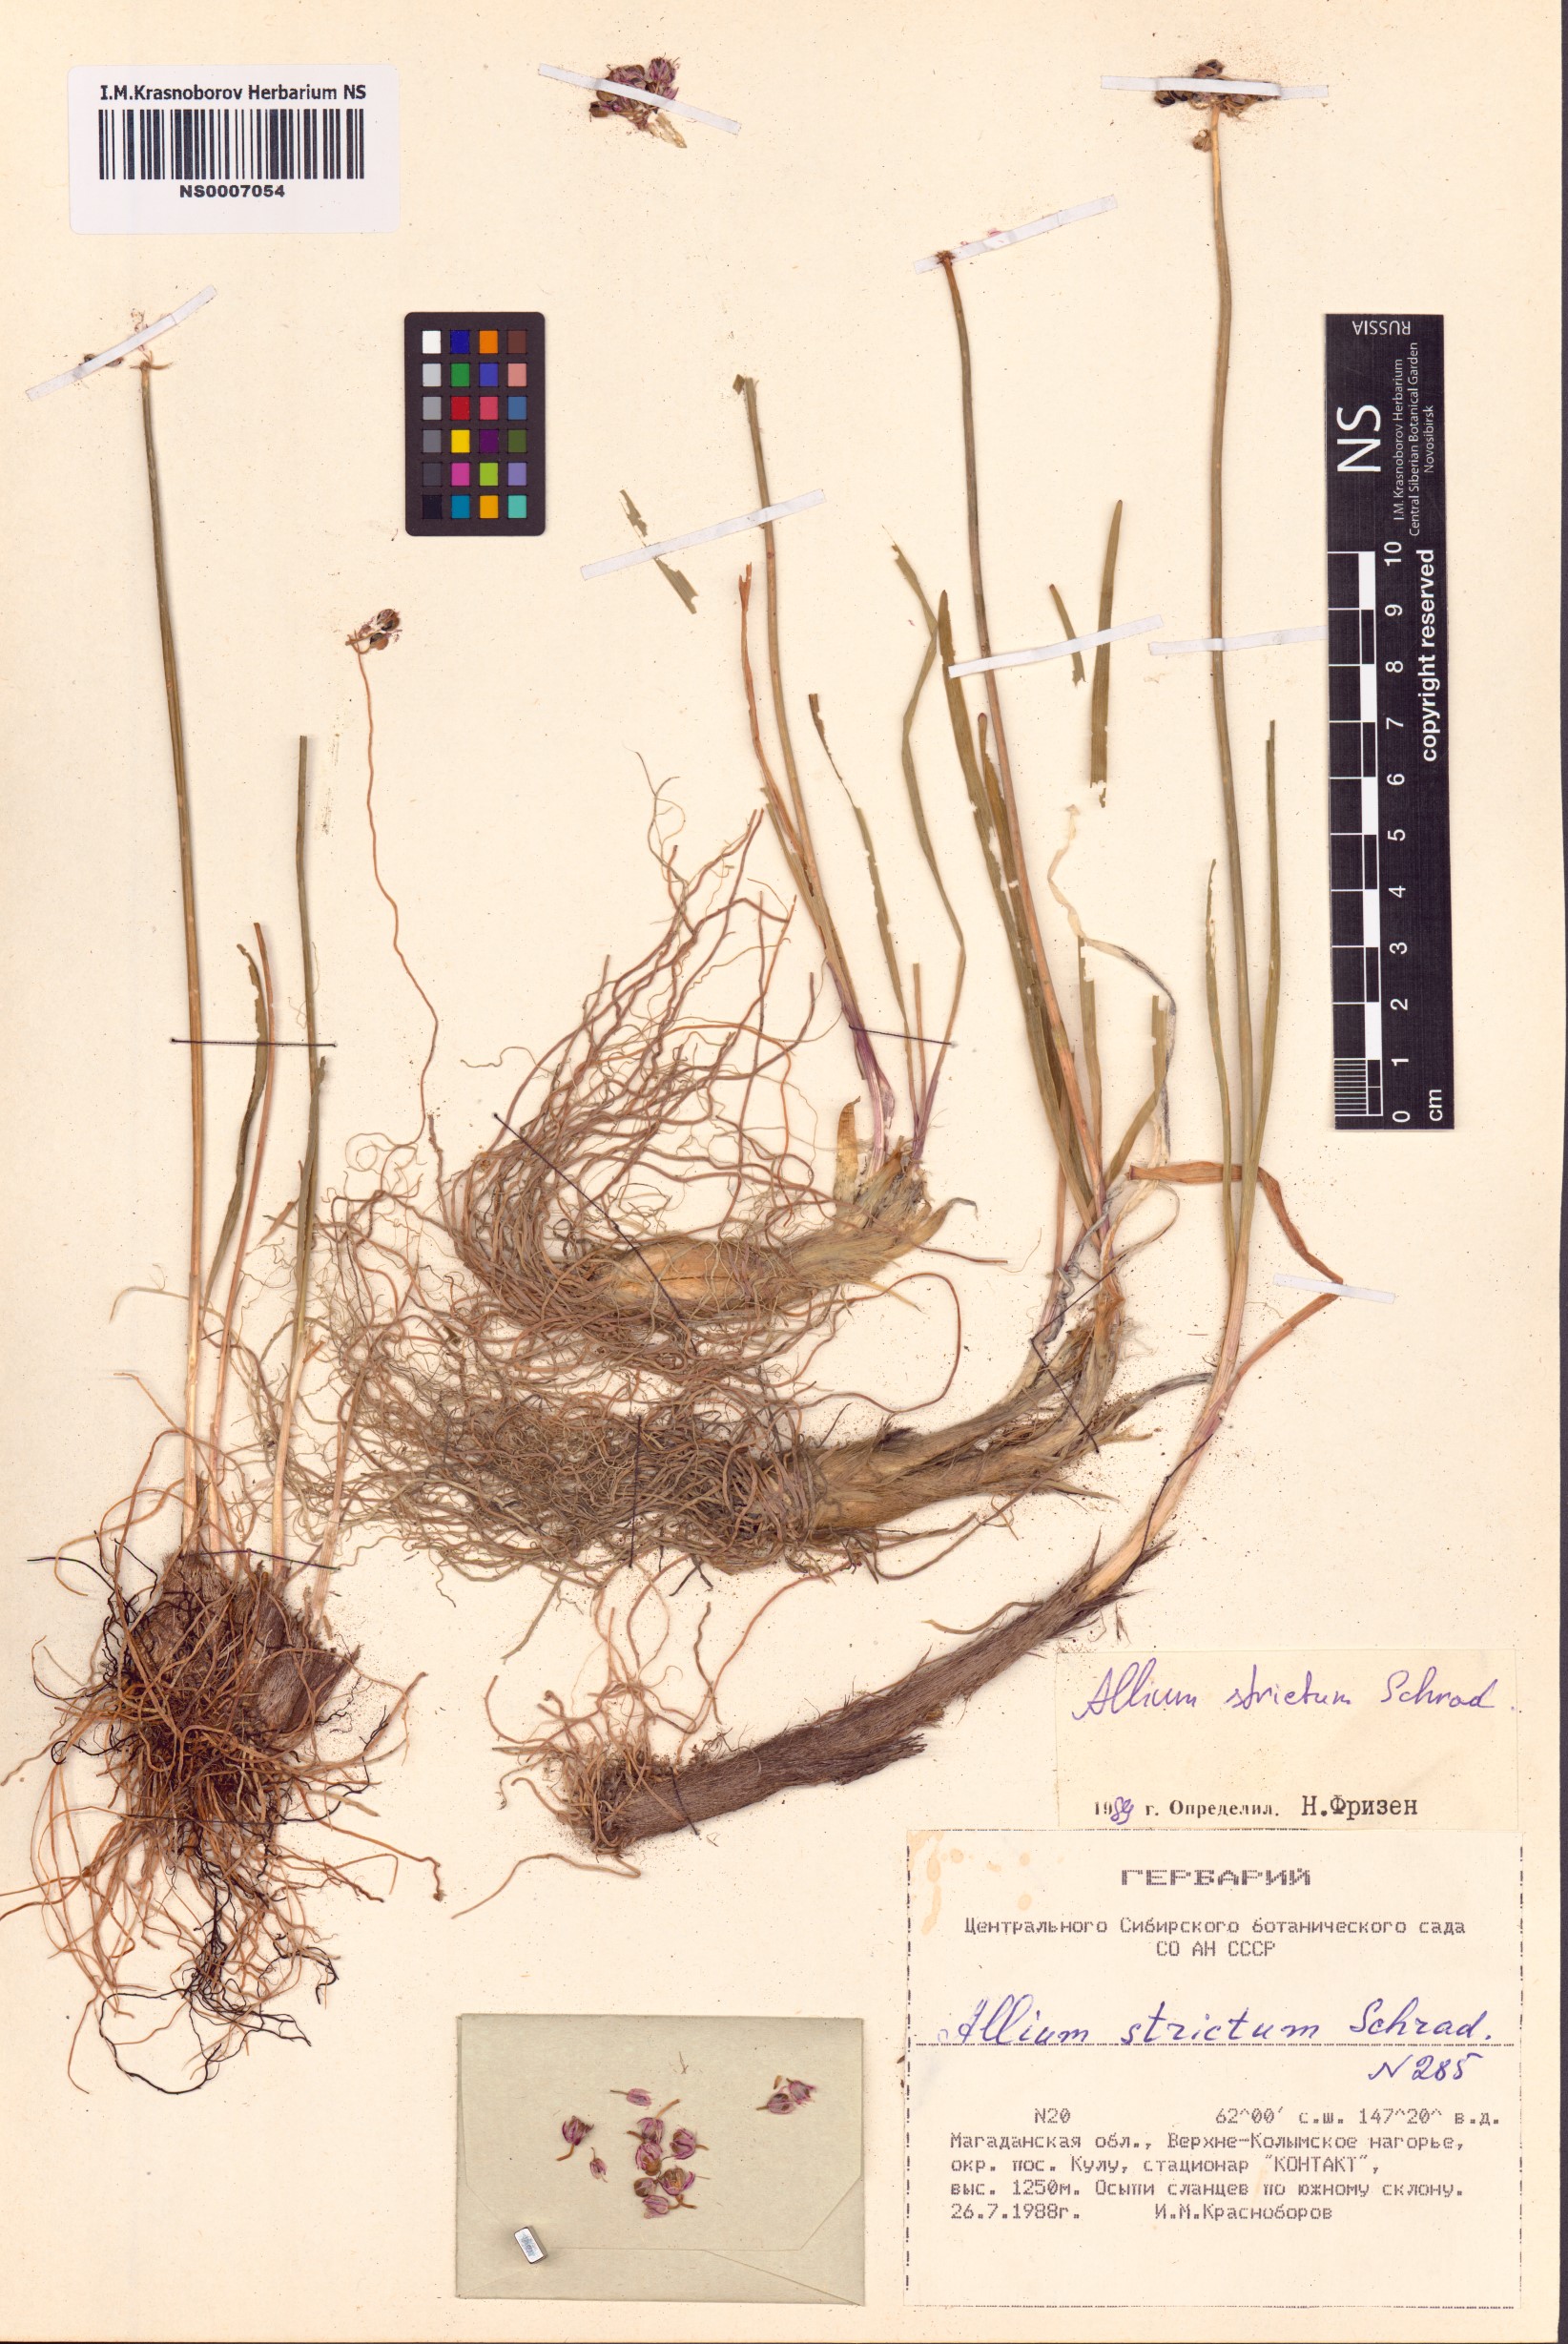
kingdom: Plantae
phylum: Tracheophyta
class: Liliopsida
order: Asparagales
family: Amaryllidaceae
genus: Allium
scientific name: Allium strictum
